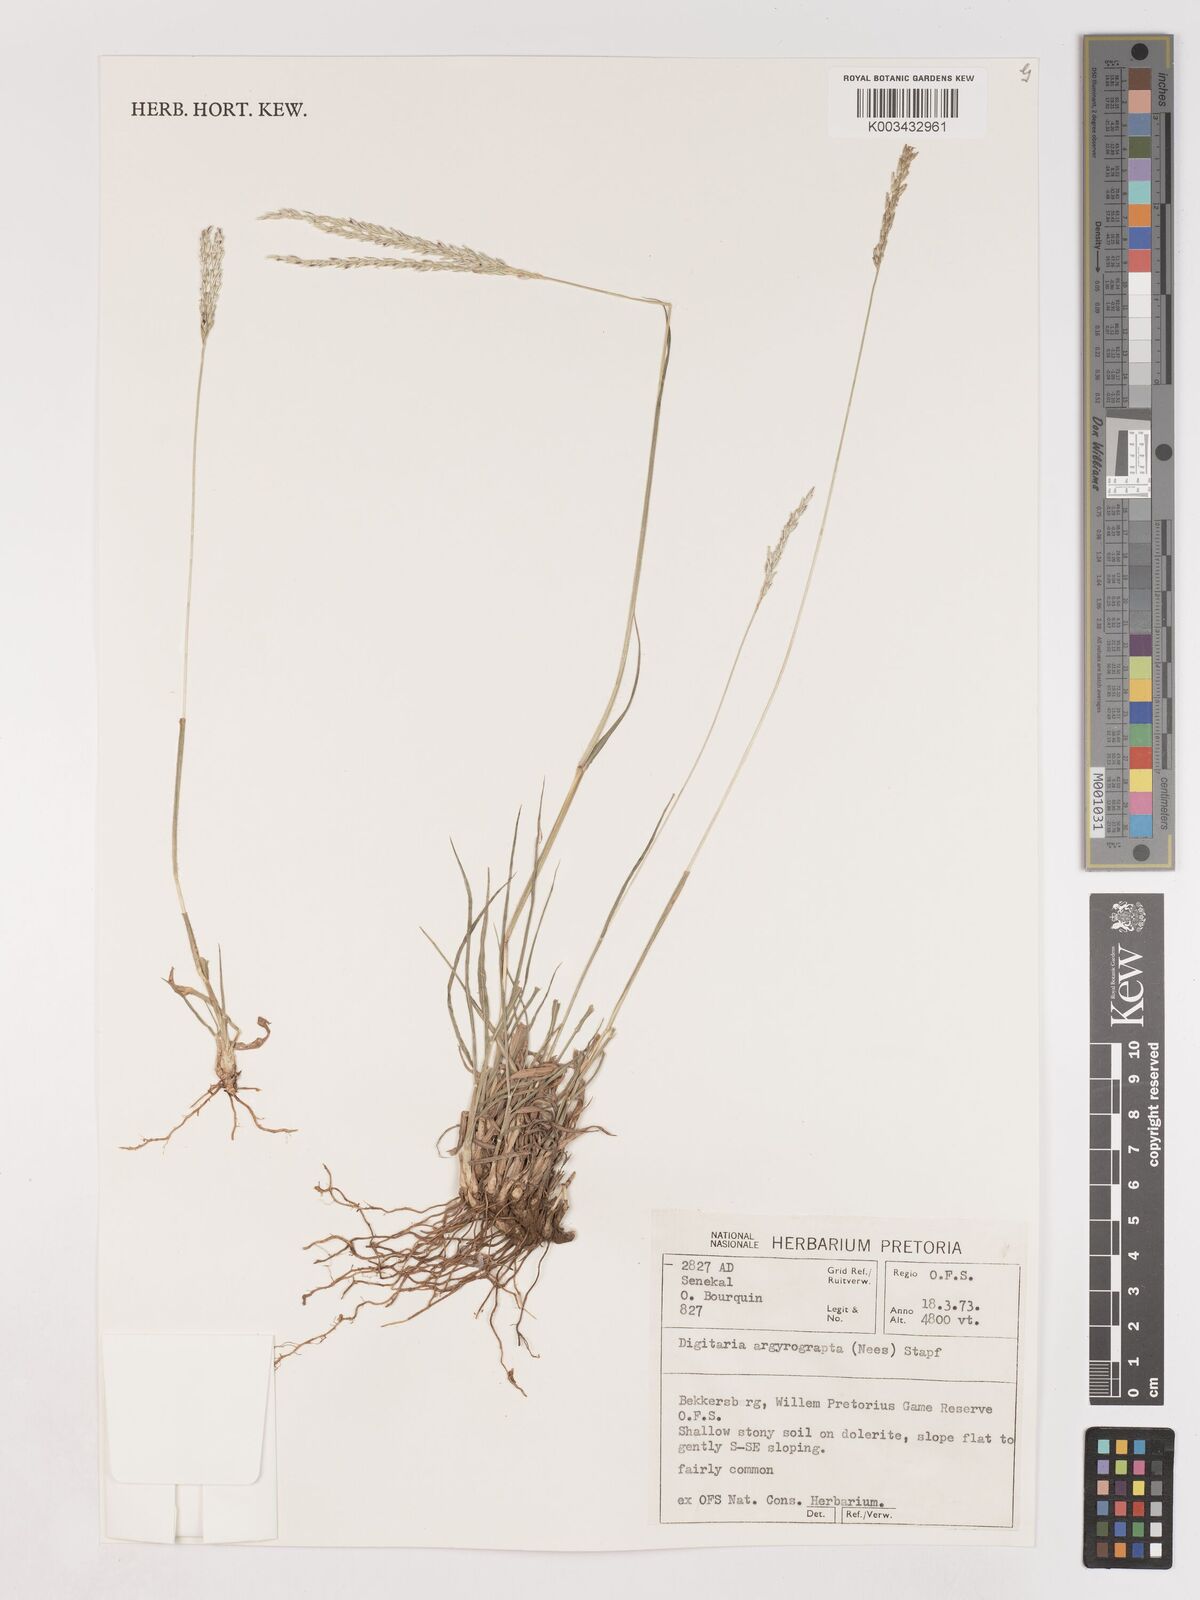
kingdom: Plantae
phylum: Tracheophyta
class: Liliopsida
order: Poales
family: Poaceae
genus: Digitaria
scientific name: Digitaria argyrograpta
